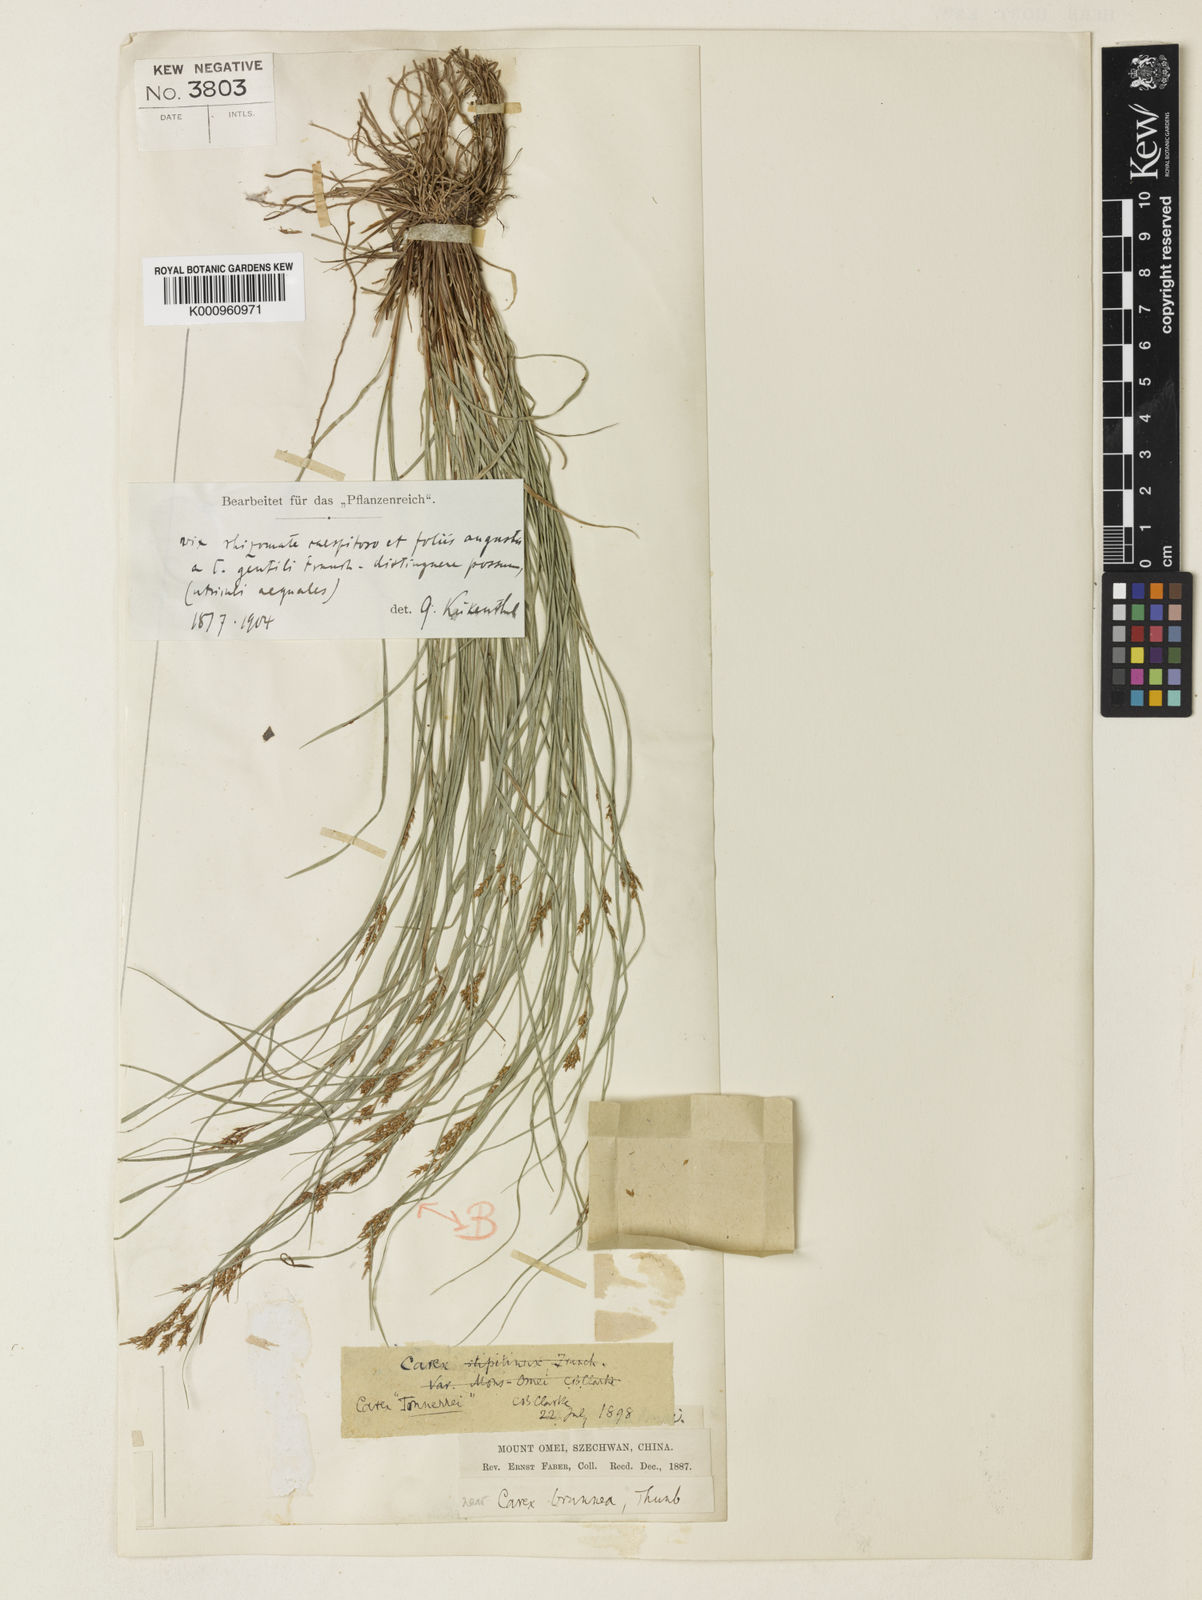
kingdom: Plantae
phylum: Tracheophyta
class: Liliopsida
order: Poales
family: Cyperaceae
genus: Carex
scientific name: Carex gentilis
